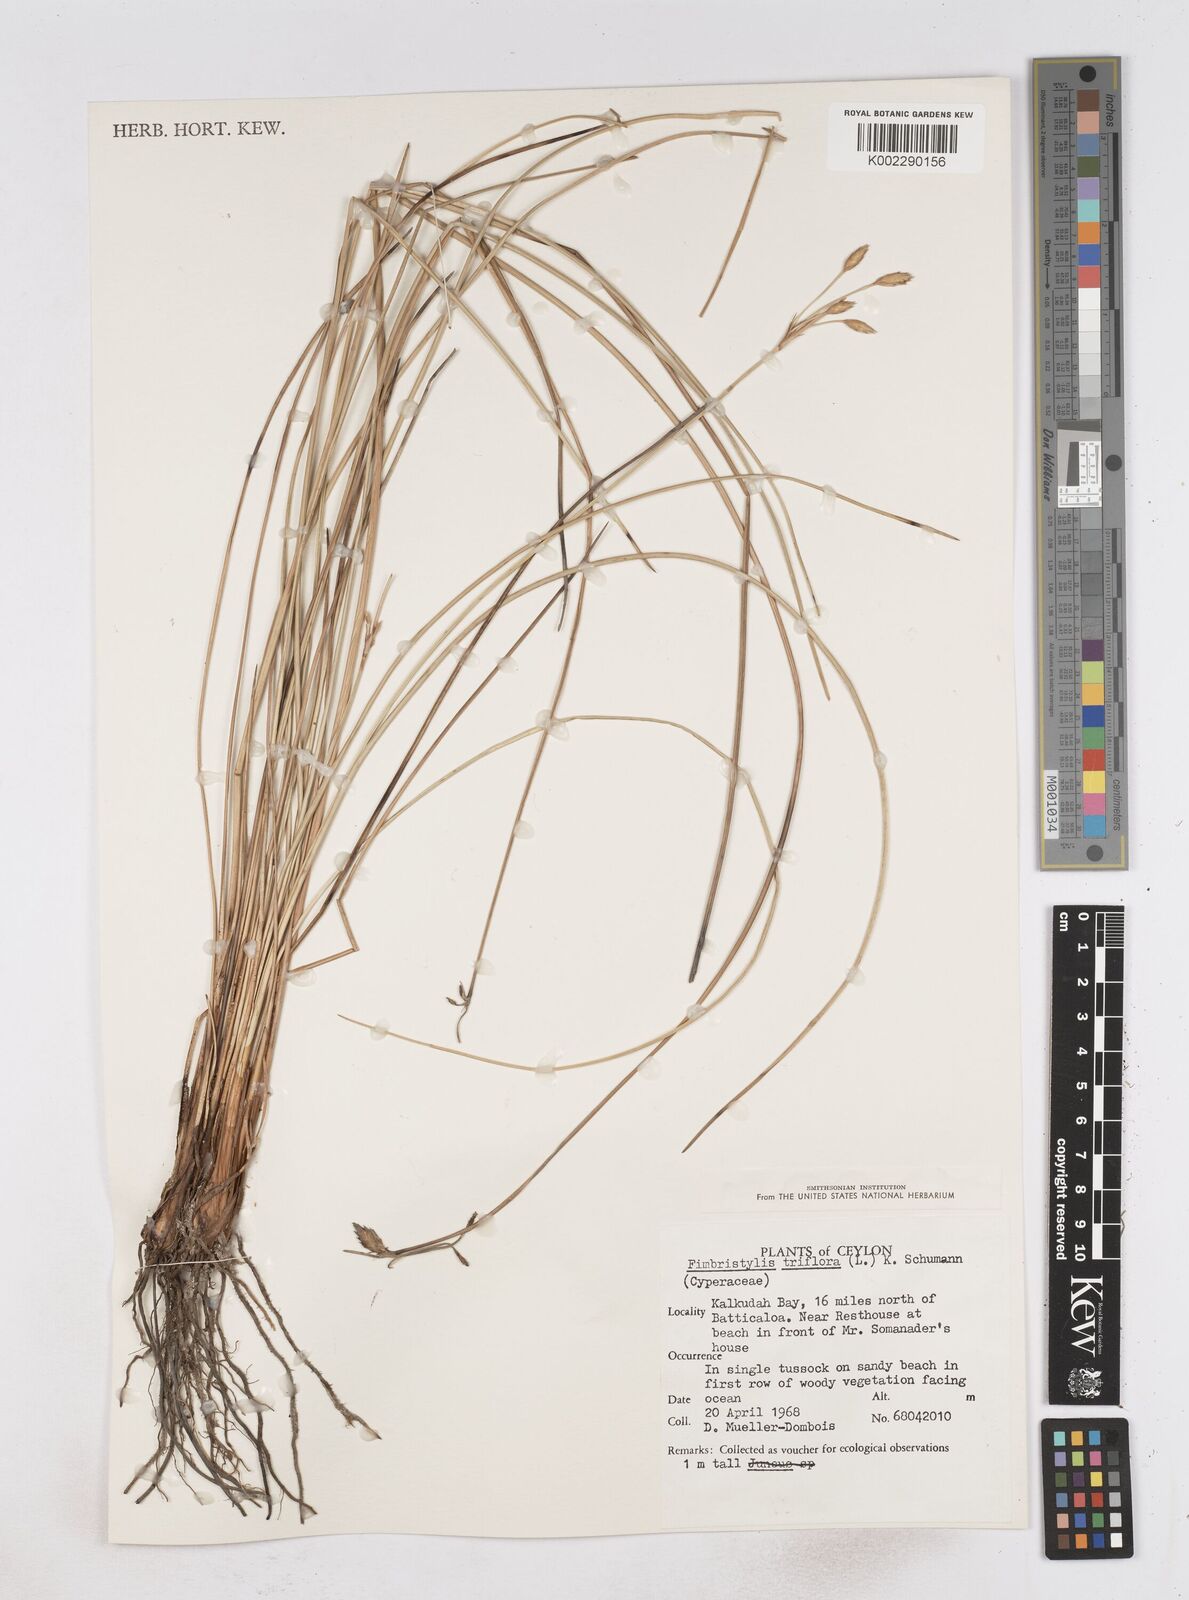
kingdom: Plantae
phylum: Tracheophyta
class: Liliopsida
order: Poales
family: Cyperaceae
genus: Abildgaardia
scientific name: Abildgaardia triflora
